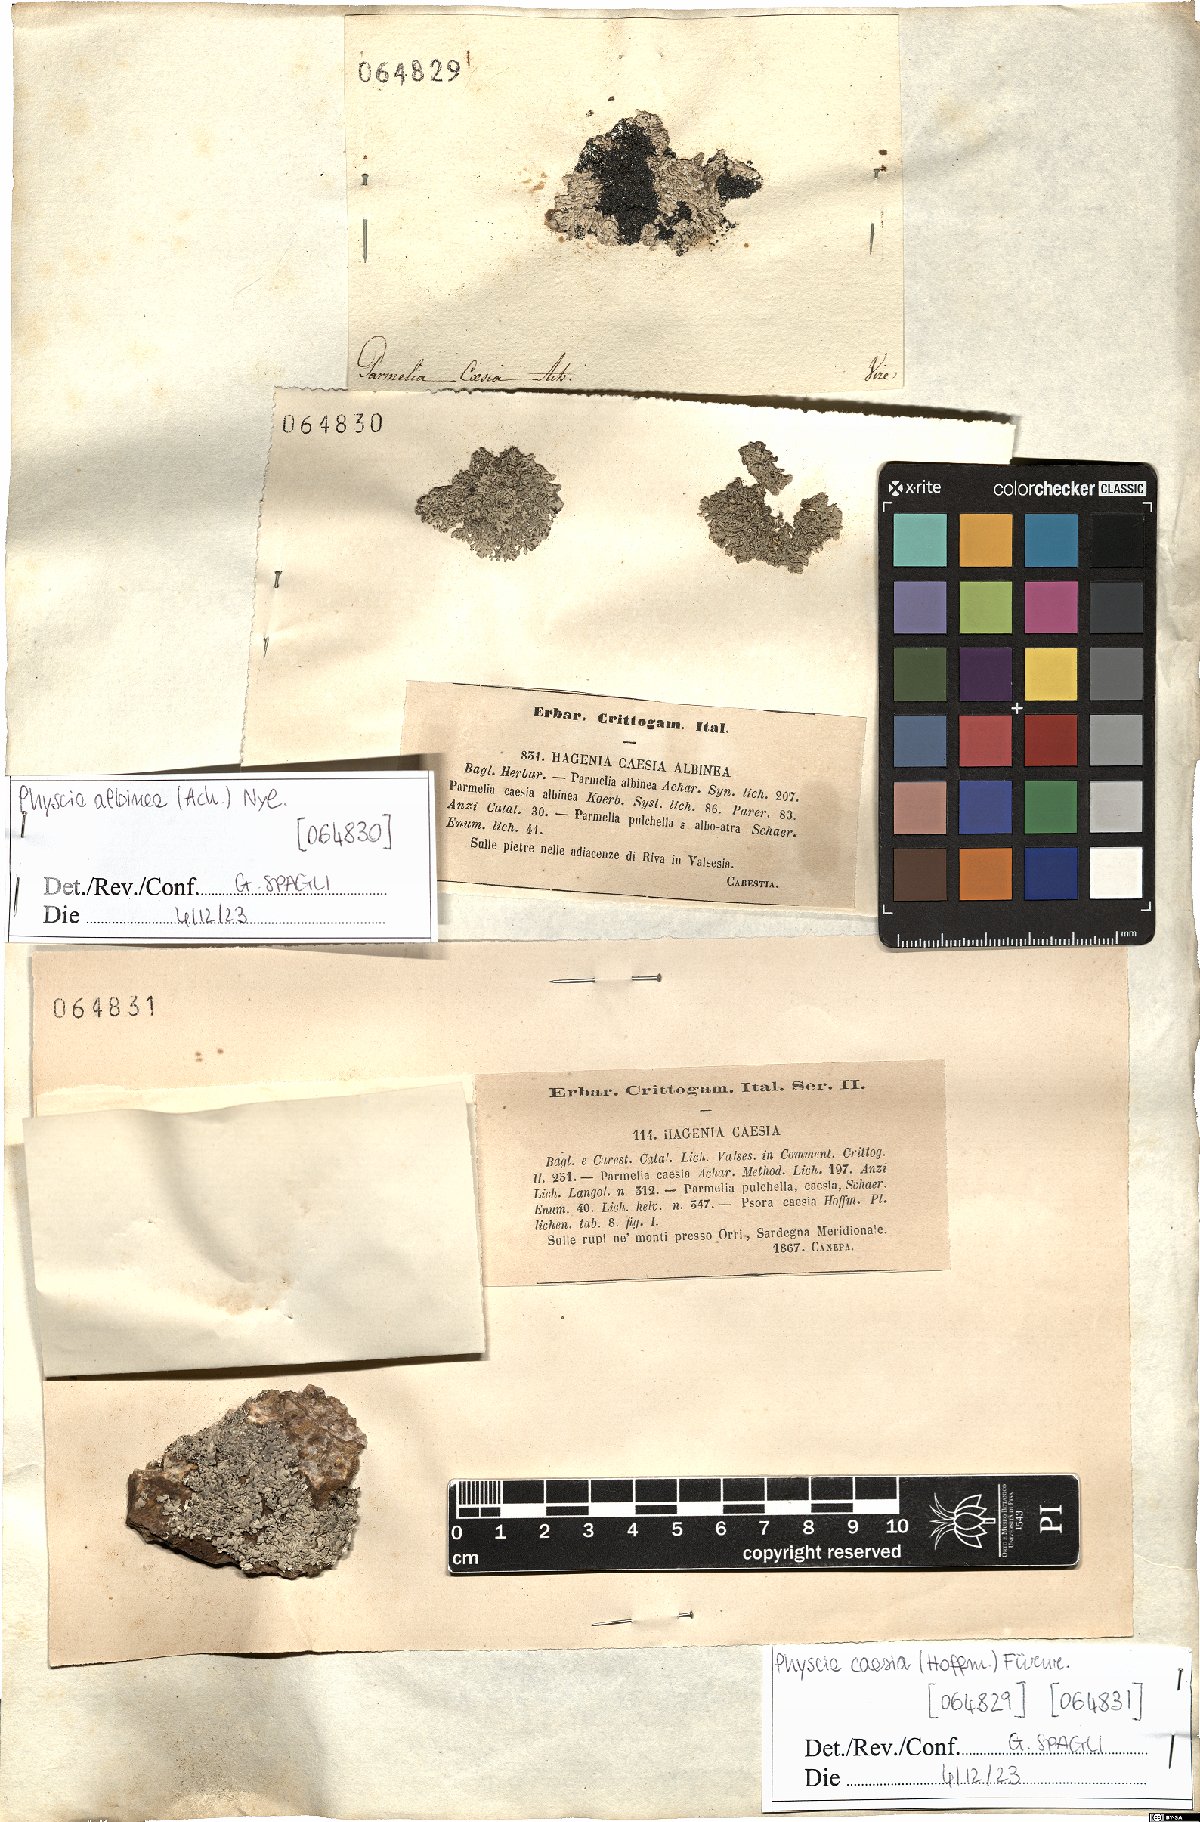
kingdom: Fungi
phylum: Ascomycota
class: Lecanoromycetes
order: Caliciales
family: Physciaceae
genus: Physcia
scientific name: Physcia caesia
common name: Blue-gray rosette lichen
